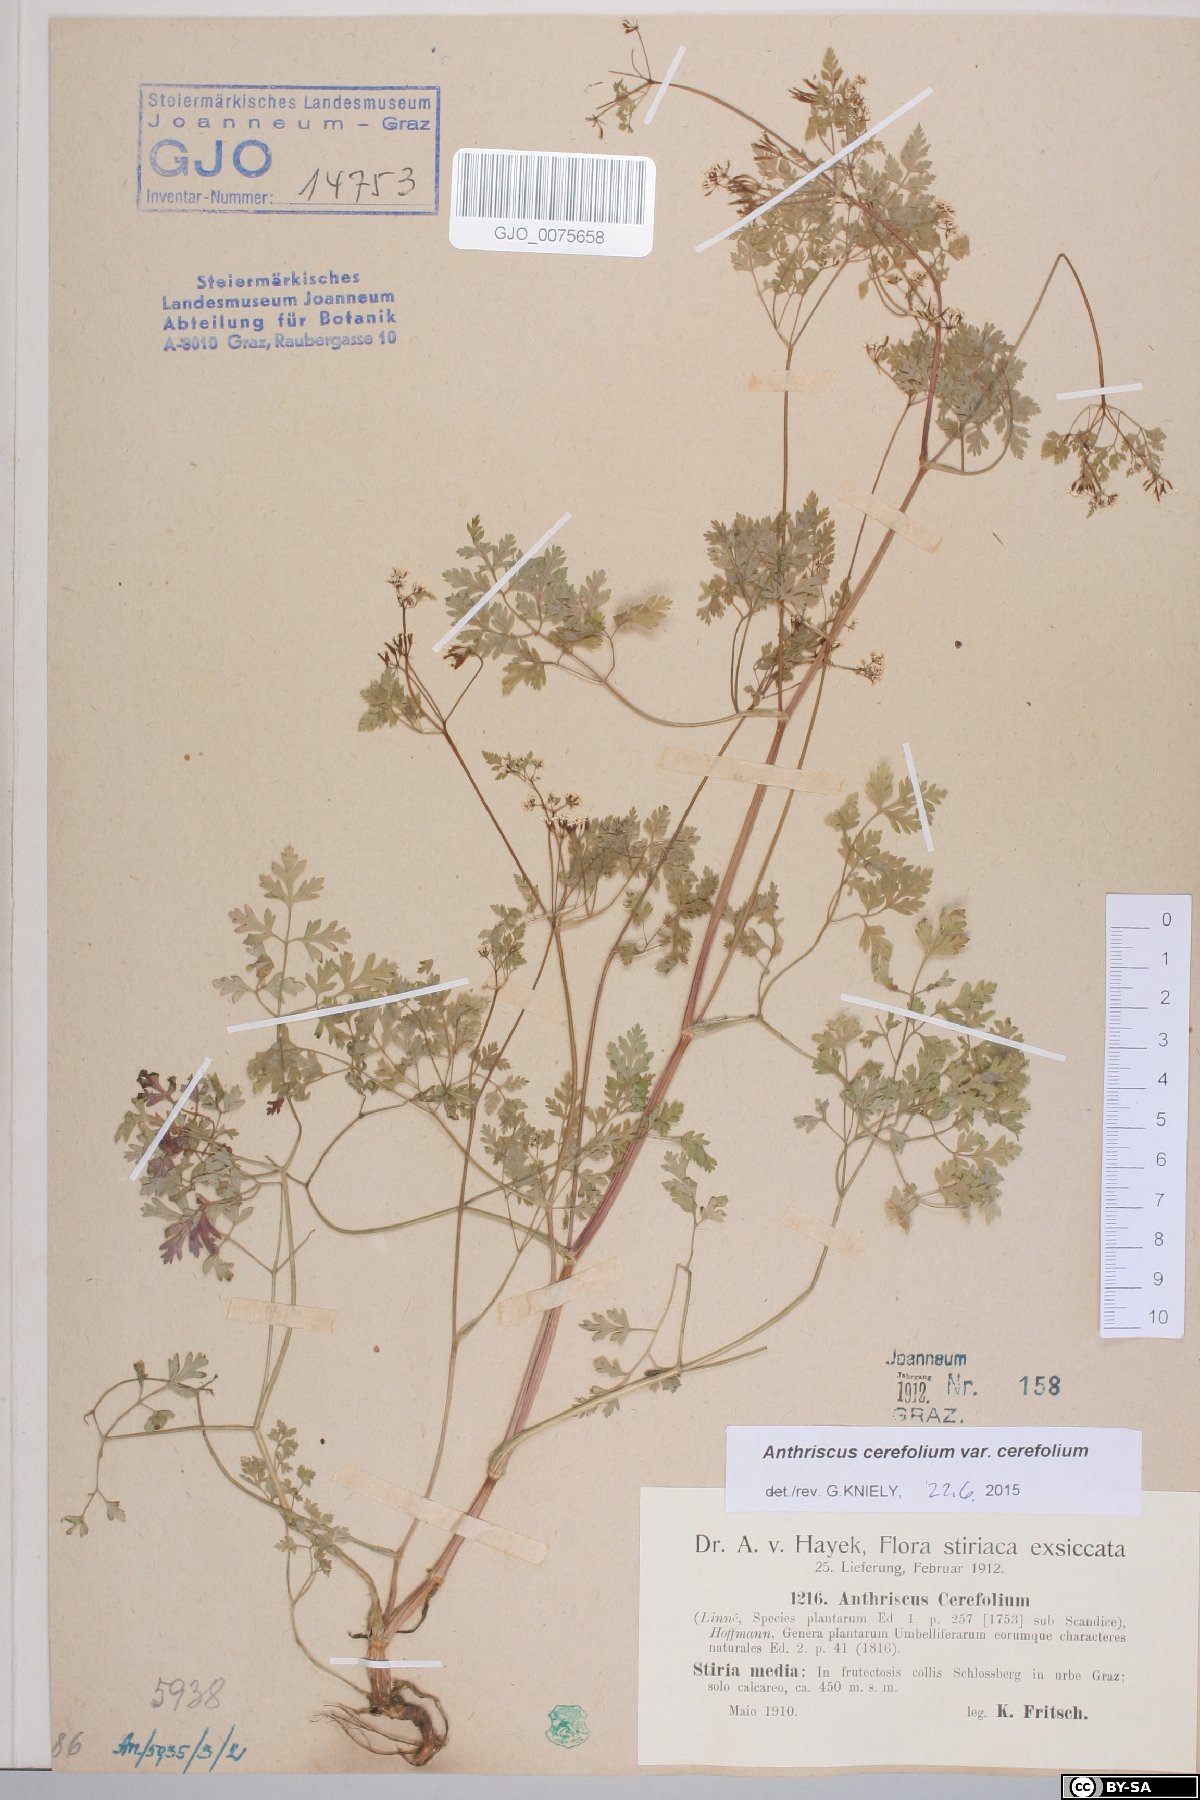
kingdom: Plantae
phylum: Tracheophyta
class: Magnoliopsida
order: Apiales
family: Apiaceae
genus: Anthriscus
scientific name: Anthriscus cerefolium
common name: Garden chervil
